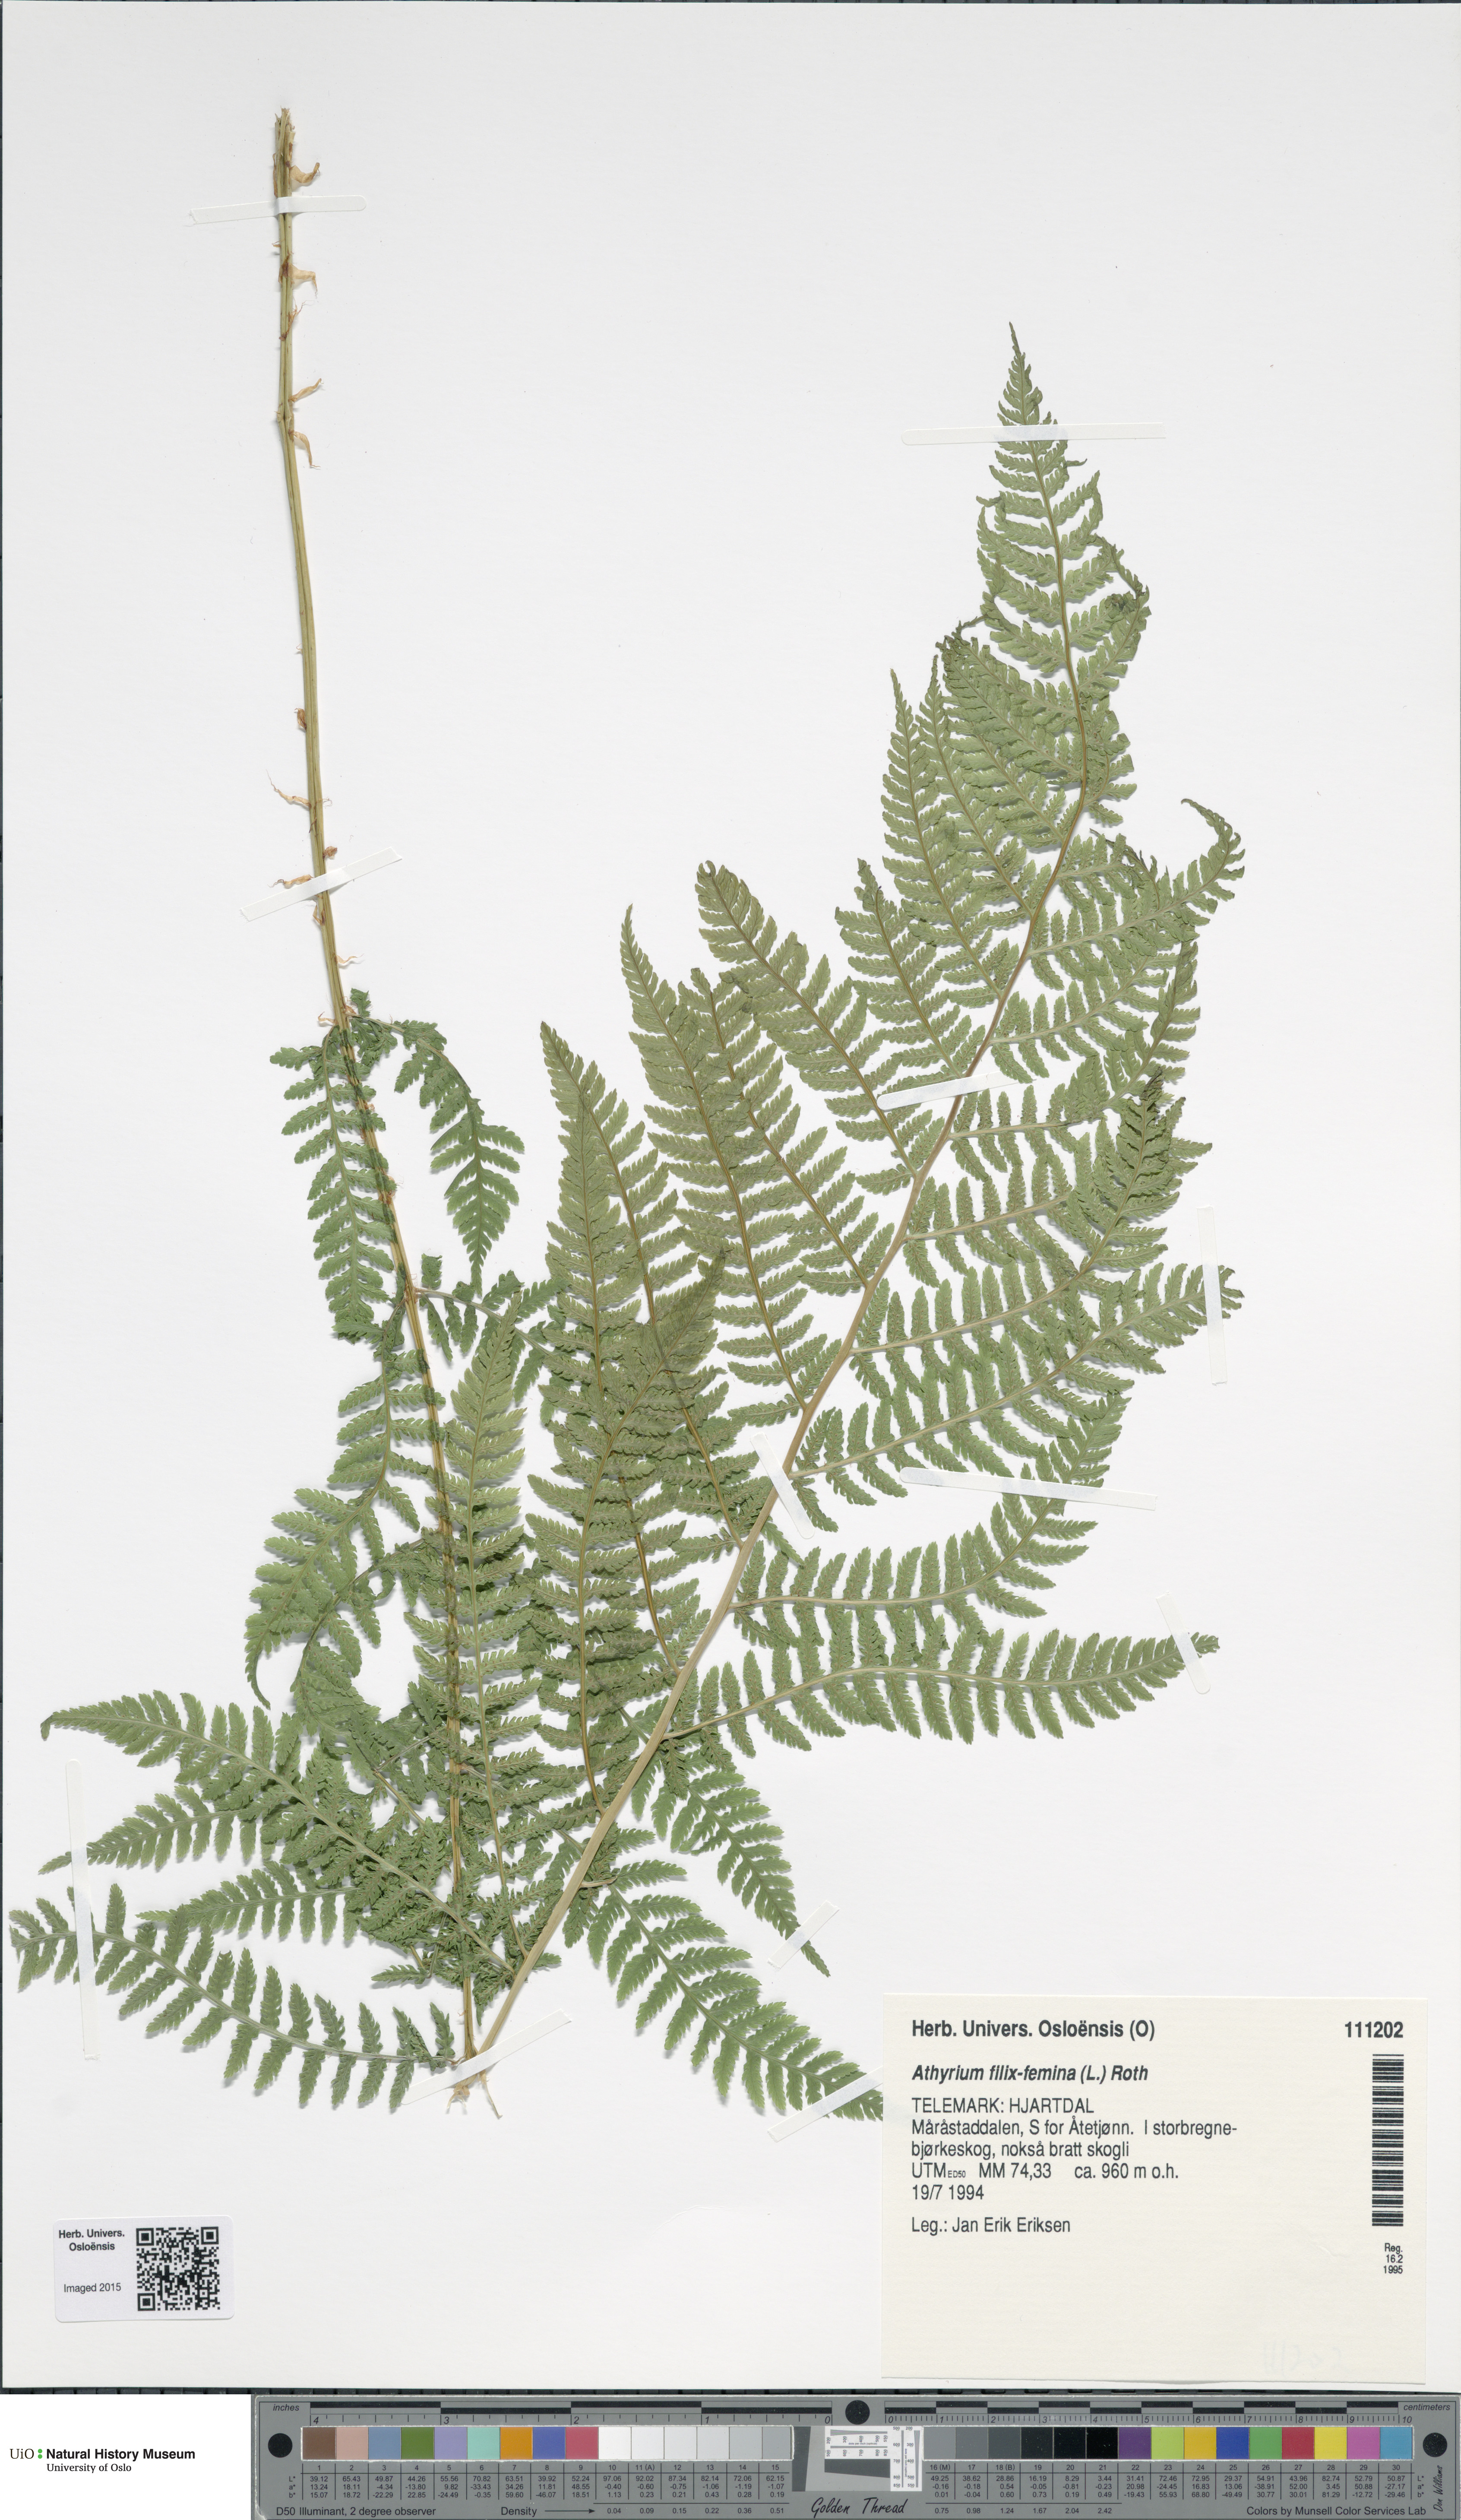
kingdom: Plantae
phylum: Tracheophyta
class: Polypodiopsida
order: Polypodiales
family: Athyriaceae
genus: Athyrium
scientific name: Athyrium filix-femina
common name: Lady fern
